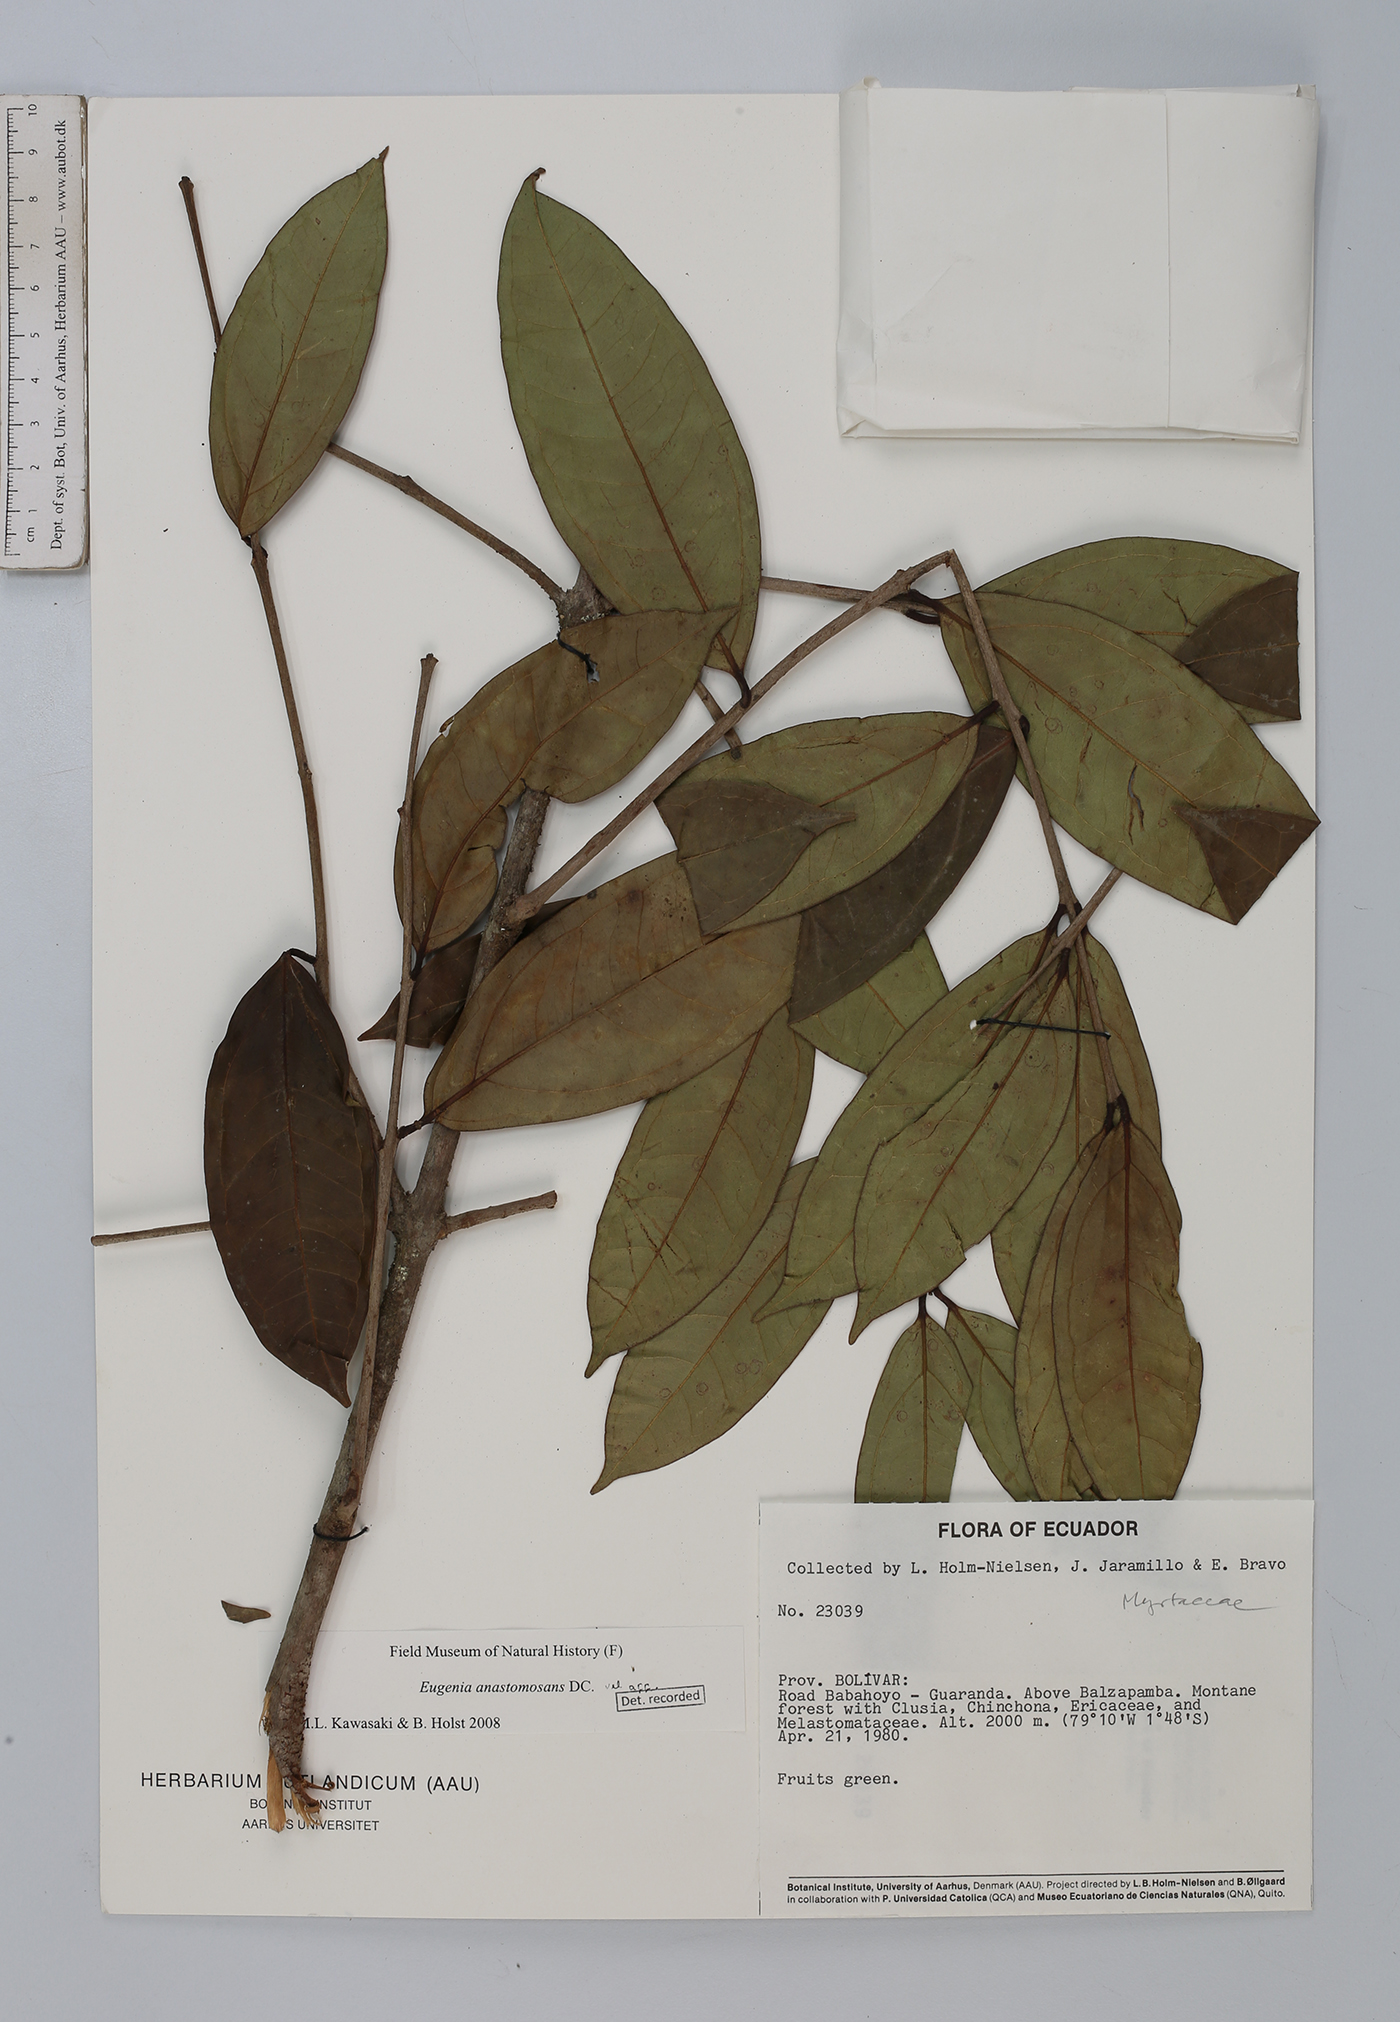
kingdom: Plantae
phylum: Tracheophyta
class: Magnoliopsida
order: Myrtales
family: Myrtaceae
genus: Eugenia
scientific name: Eugenia anastomosans
